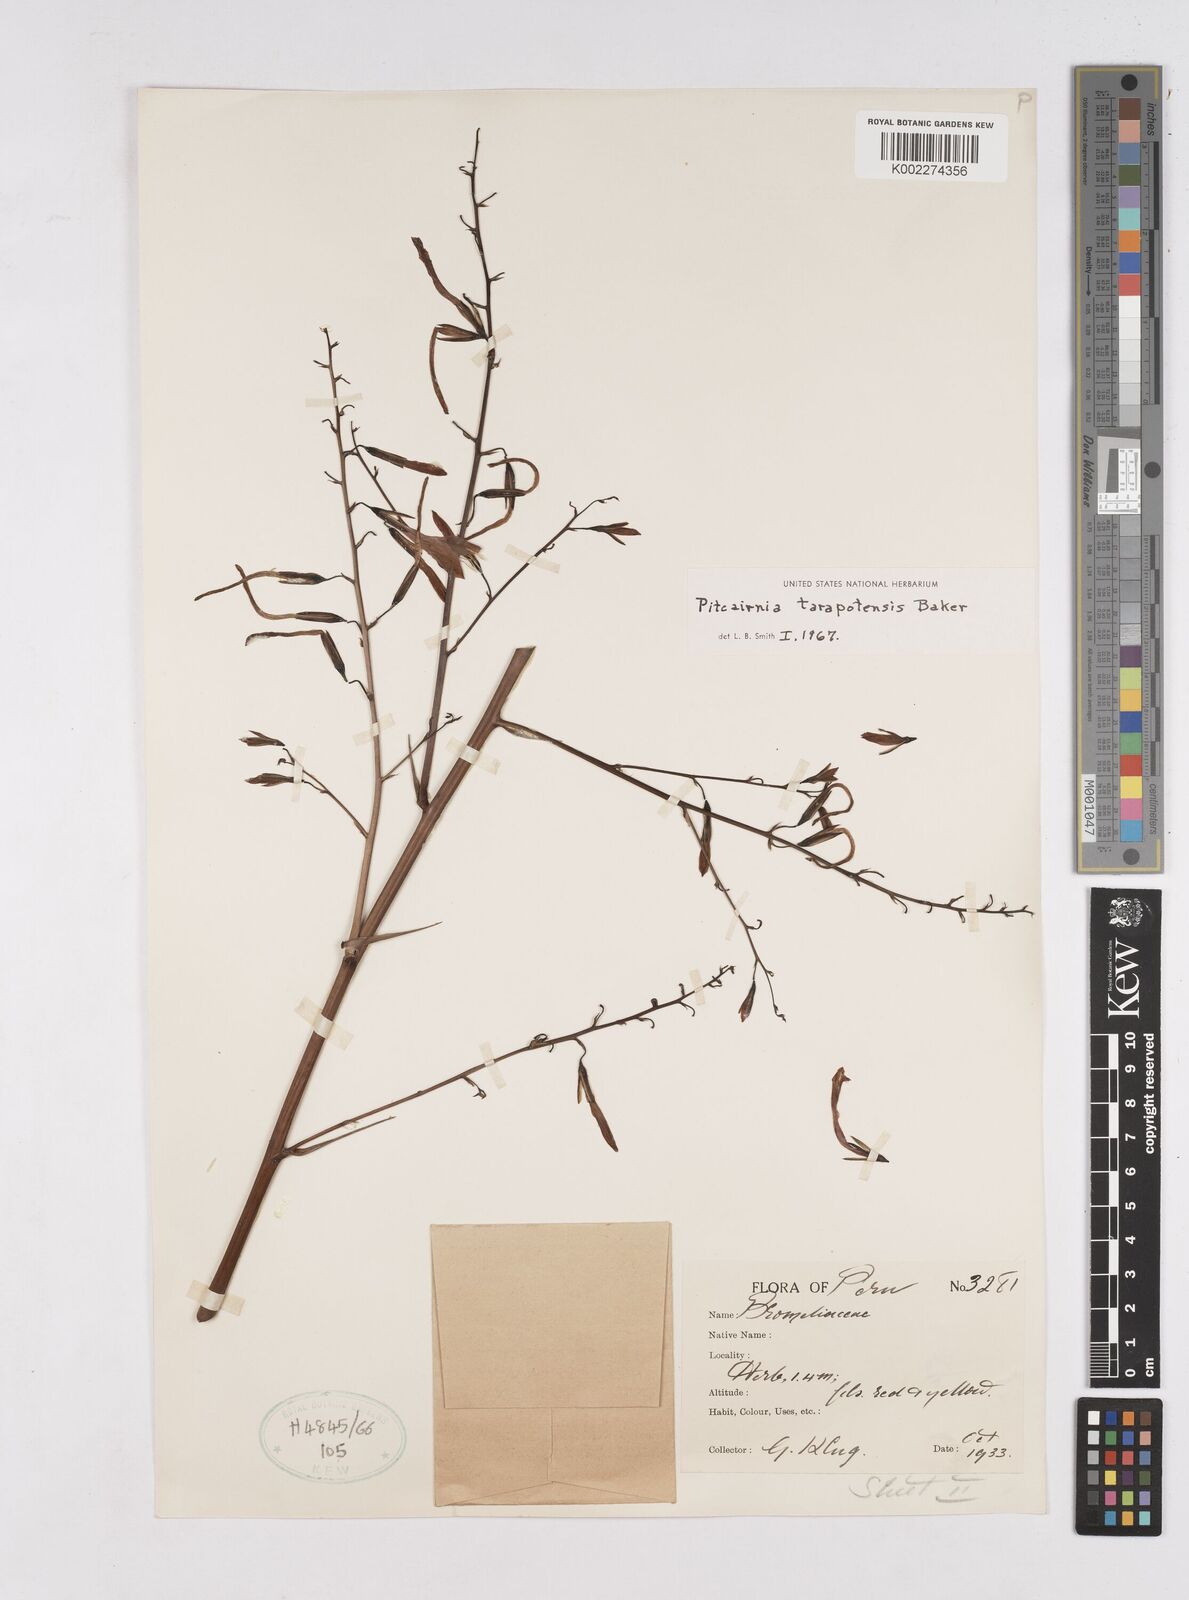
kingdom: Plantae
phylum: Tracheophyta
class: Liliopsida
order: Poales
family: Bromeliaceae
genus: Pitcairnia
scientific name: Pitcairnia tarapotensis
